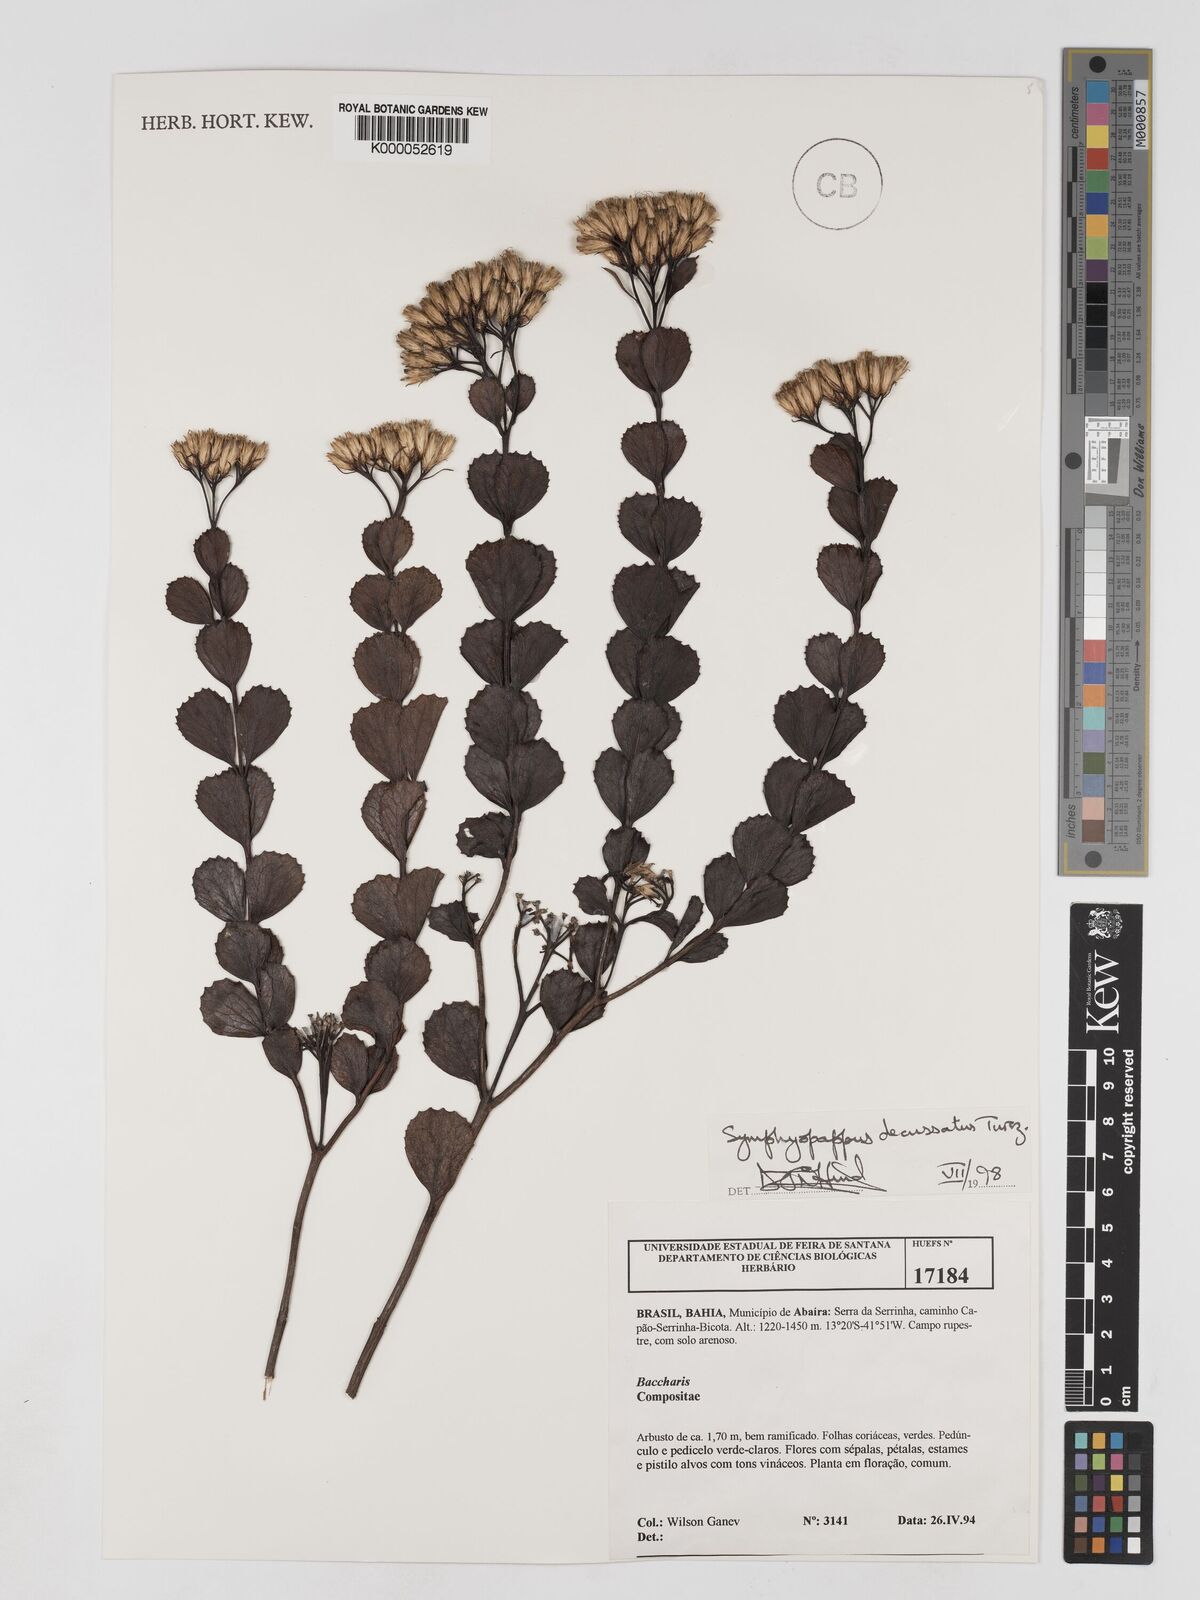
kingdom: Plantae
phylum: Tracheophyta
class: Magnoliopsida
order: Asterales
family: Asteraceae
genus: Symphyopappus
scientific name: Symphyopappus decussatus
